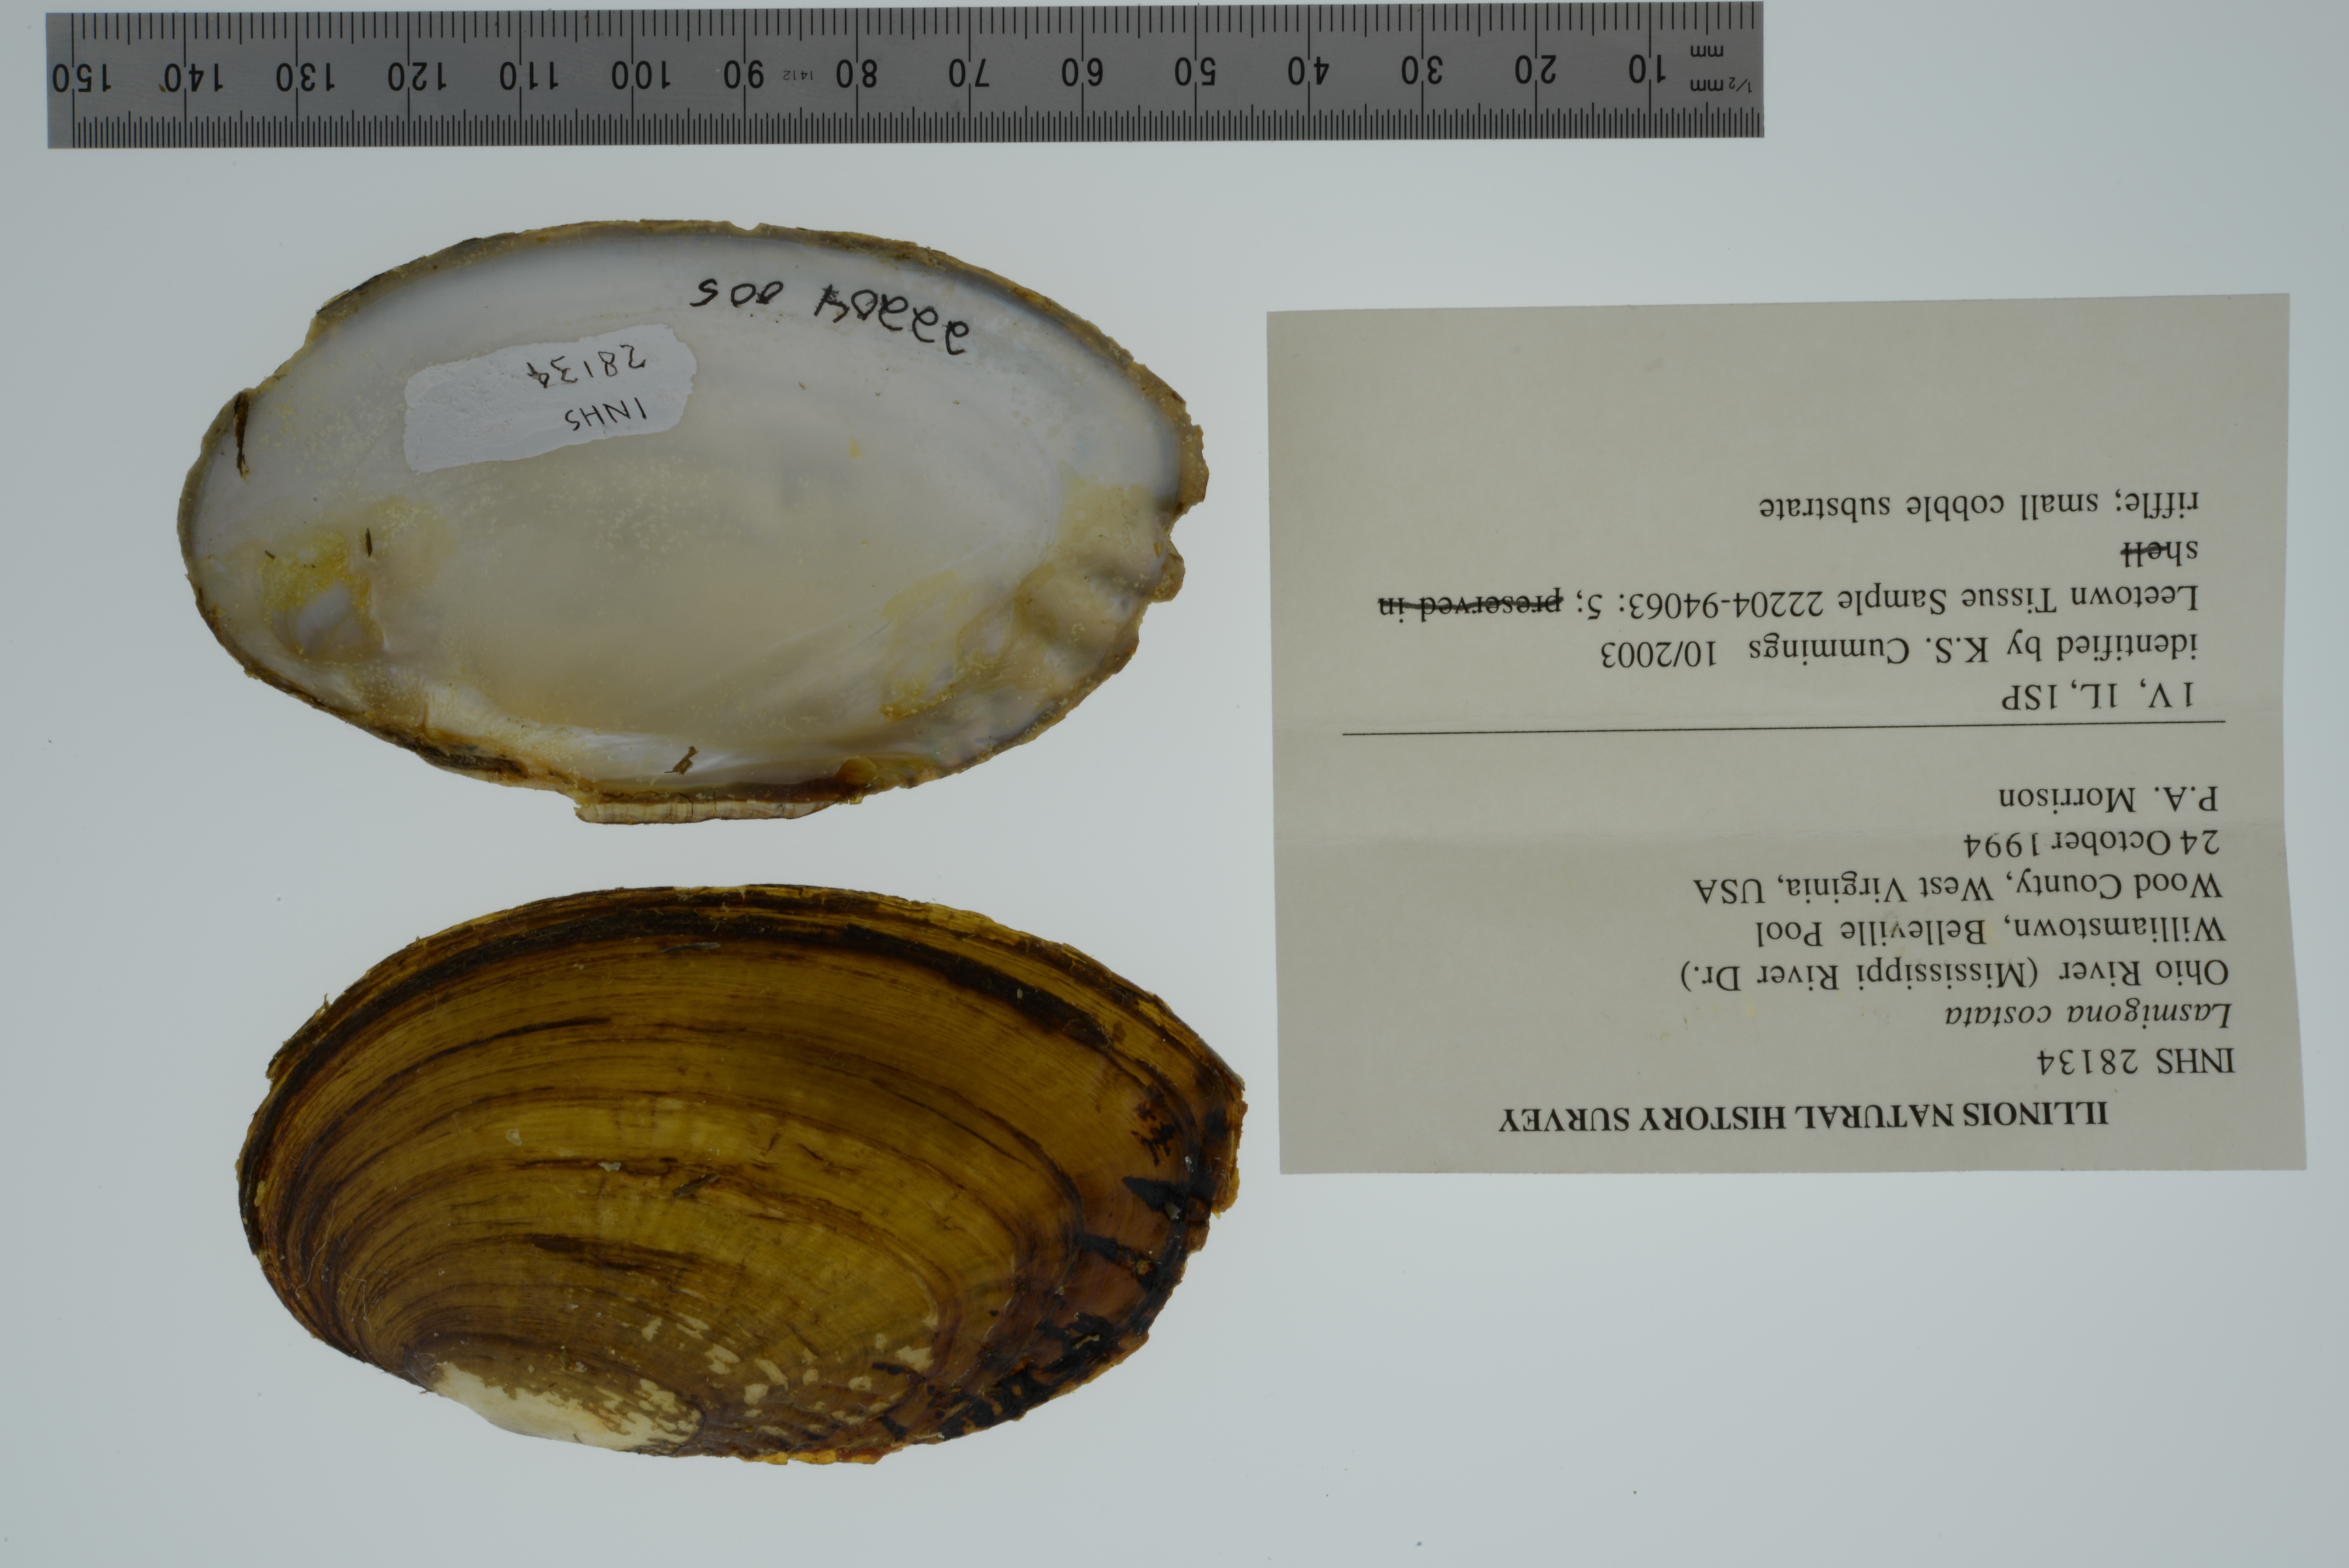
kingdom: Animalia
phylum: Mollusca
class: Bivalvia
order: Unionida
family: Unionidae
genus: Lasmigona
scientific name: Lasmigona costata
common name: Flutedshell
